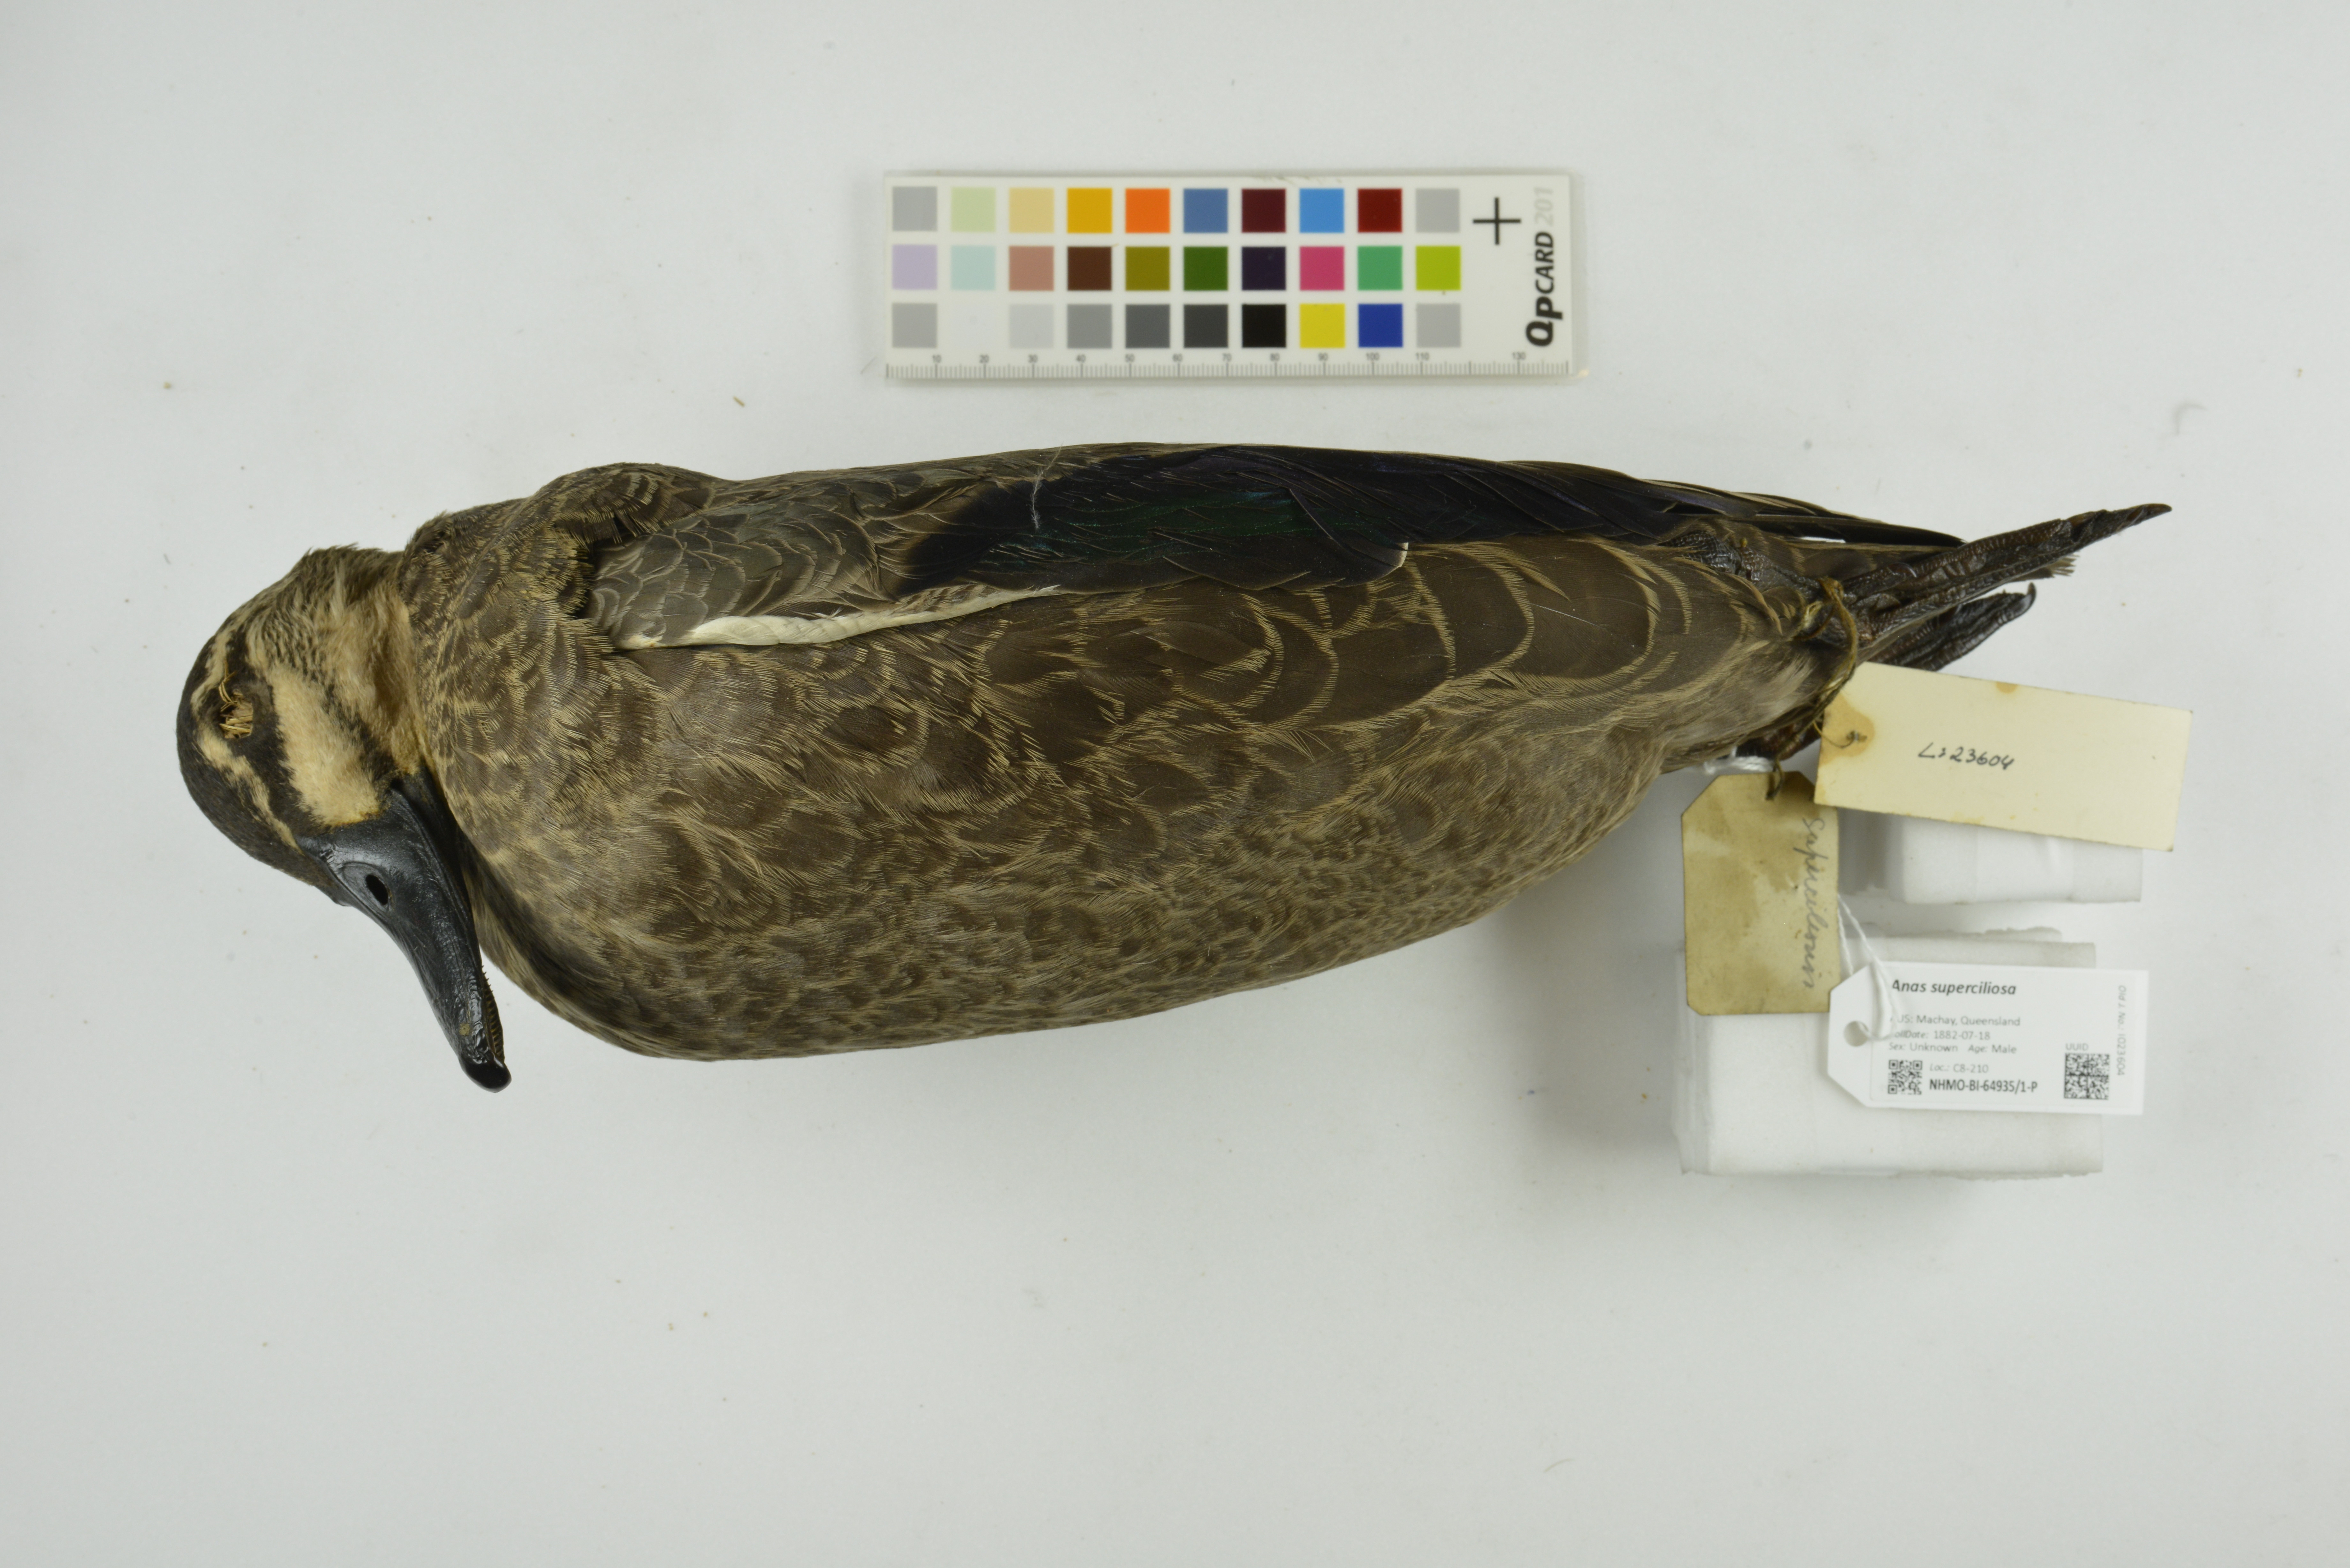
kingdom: Animalia
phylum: Chordata
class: Aves
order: Anseriformes
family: Anatidae
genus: Anas
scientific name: Anas superciliosa
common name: Pacific black duck
